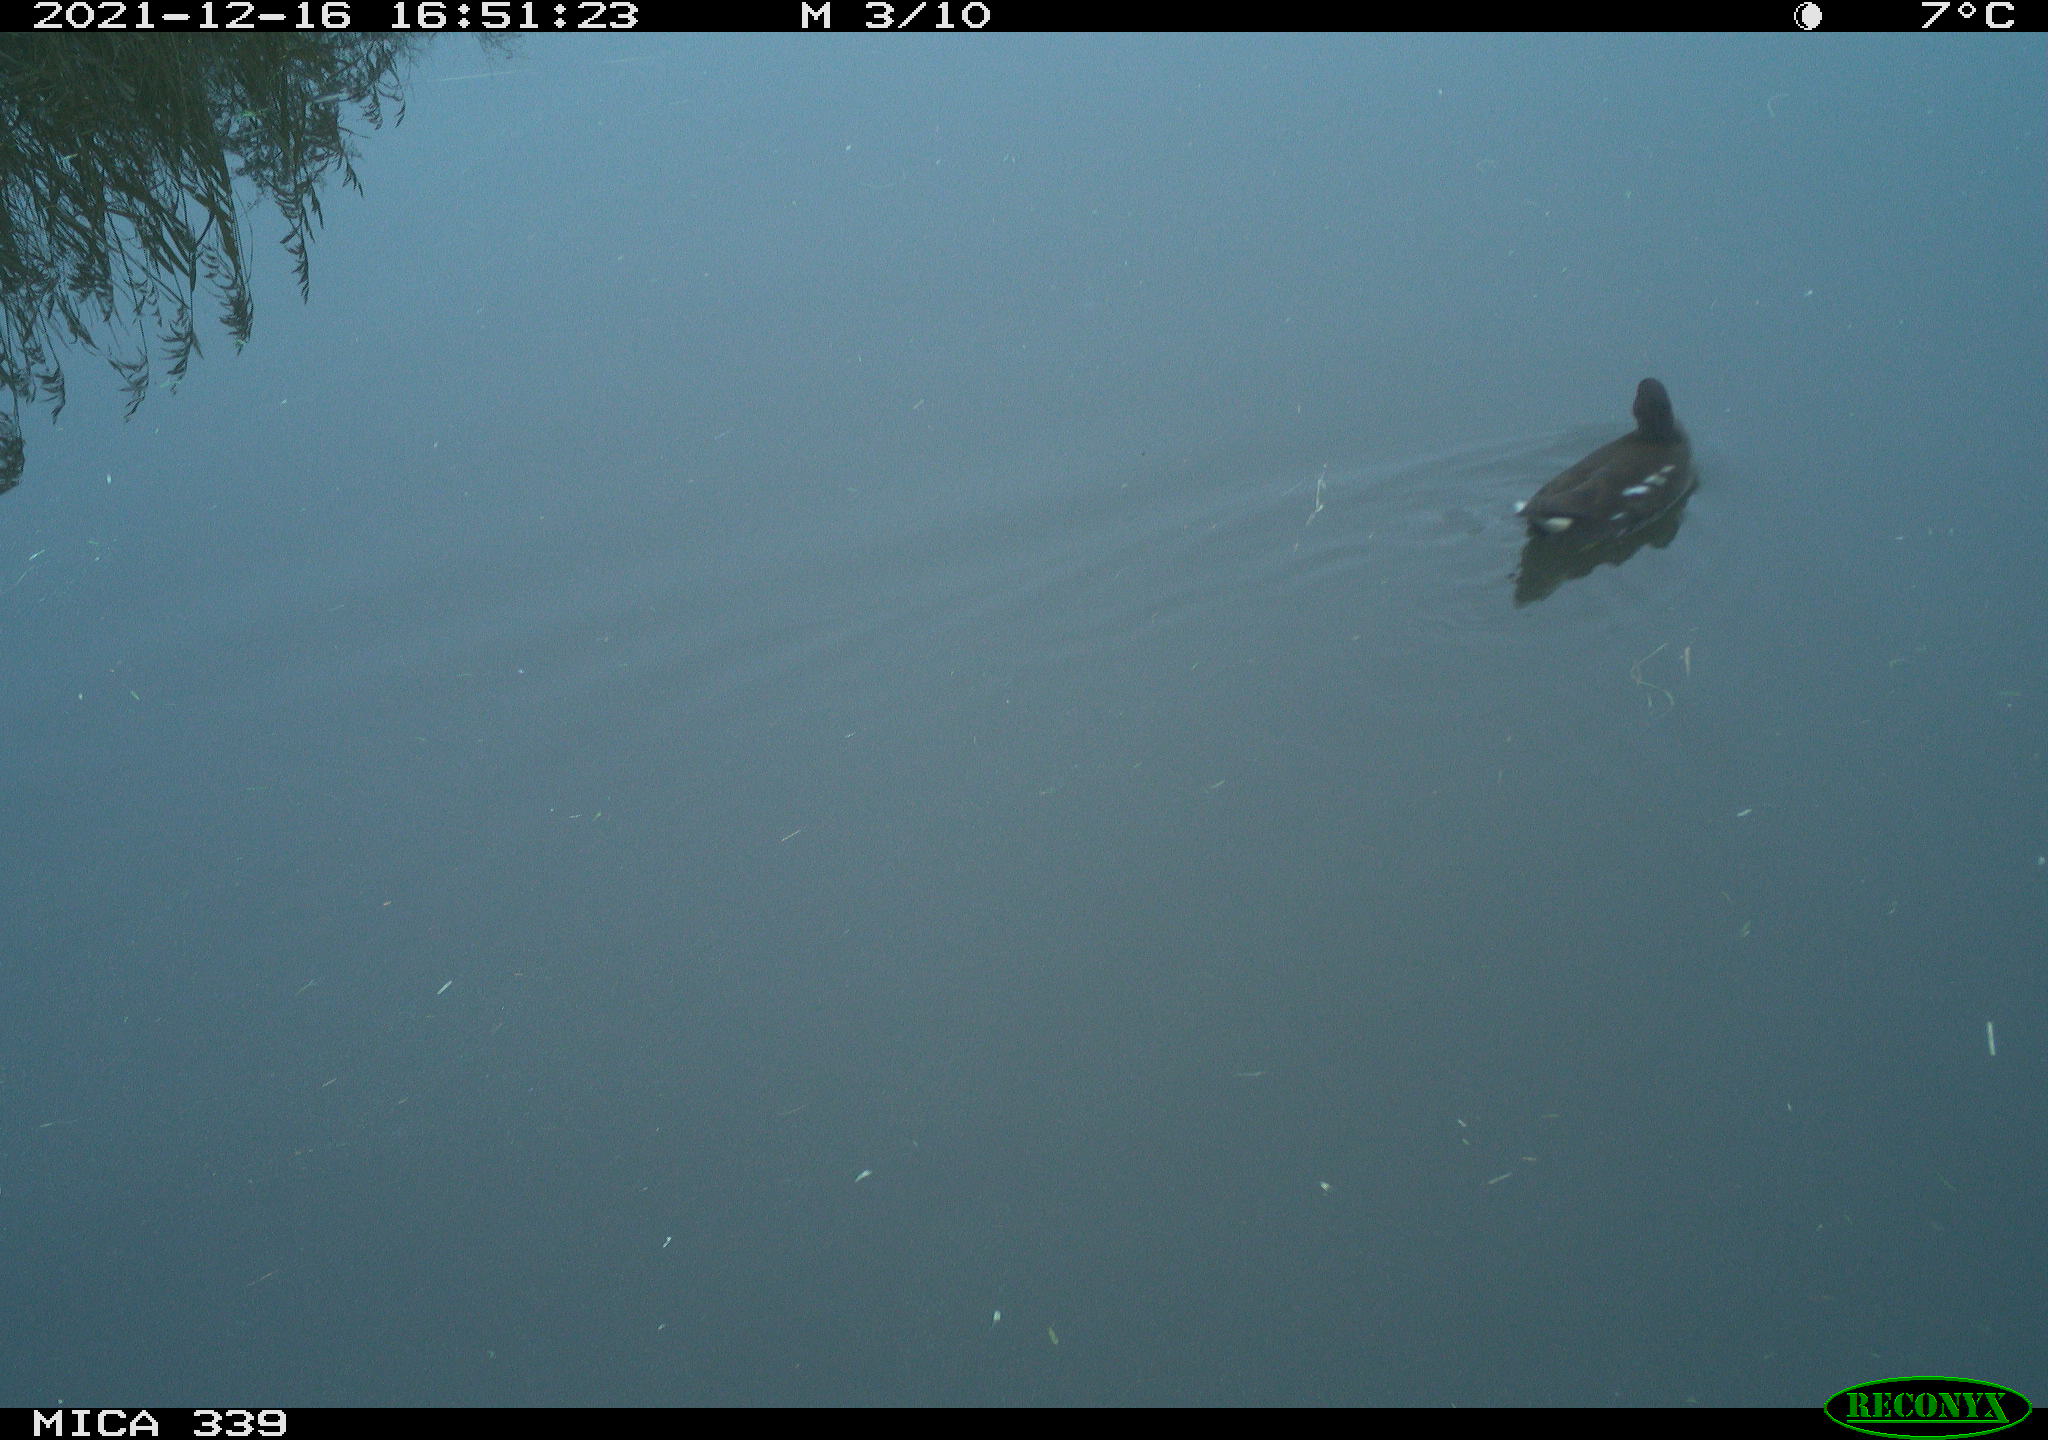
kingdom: Animalia
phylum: Chordata
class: Aves
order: Gruiformes
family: Rallidae
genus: Gallinula
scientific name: Gallinula chloropus
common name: Common moorhen
